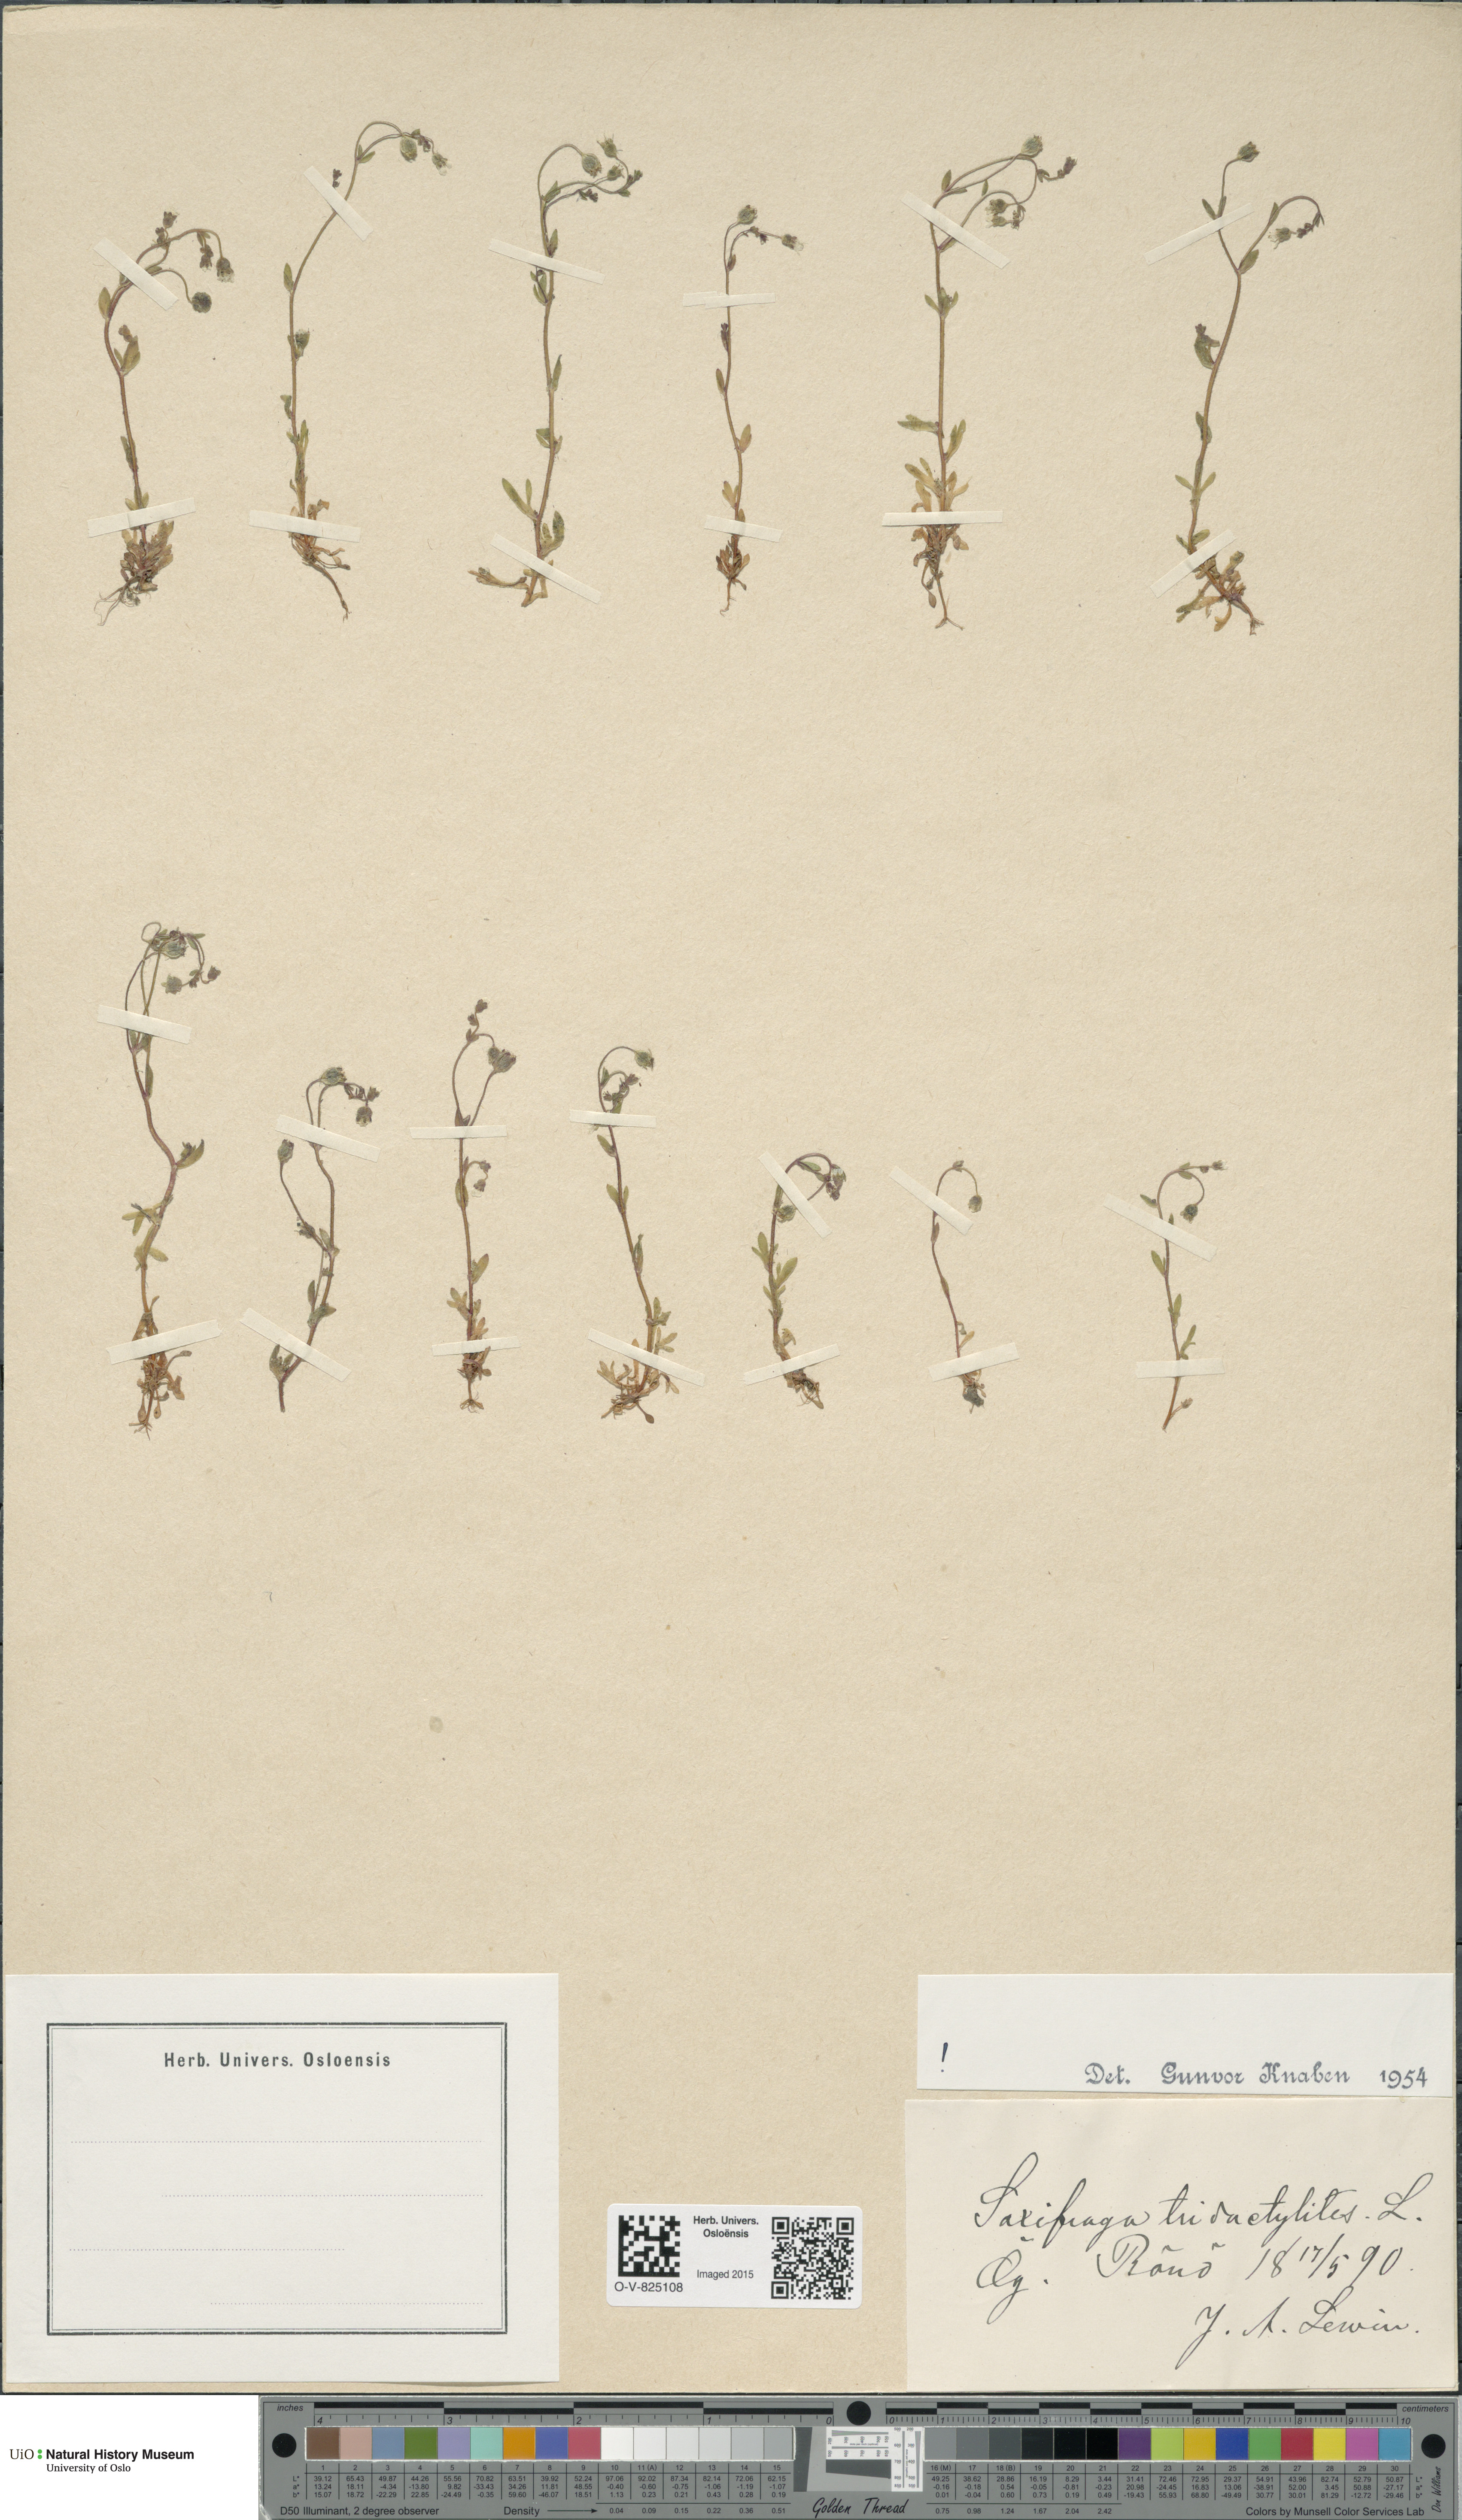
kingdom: Plantae
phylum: Tracheophyta
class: Magnoliopsida
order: Saxifragales
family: Saxifragaceae
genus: Saxifraga
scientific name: Saxifraga tridactylites
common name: Rue-leaved saxifrage
